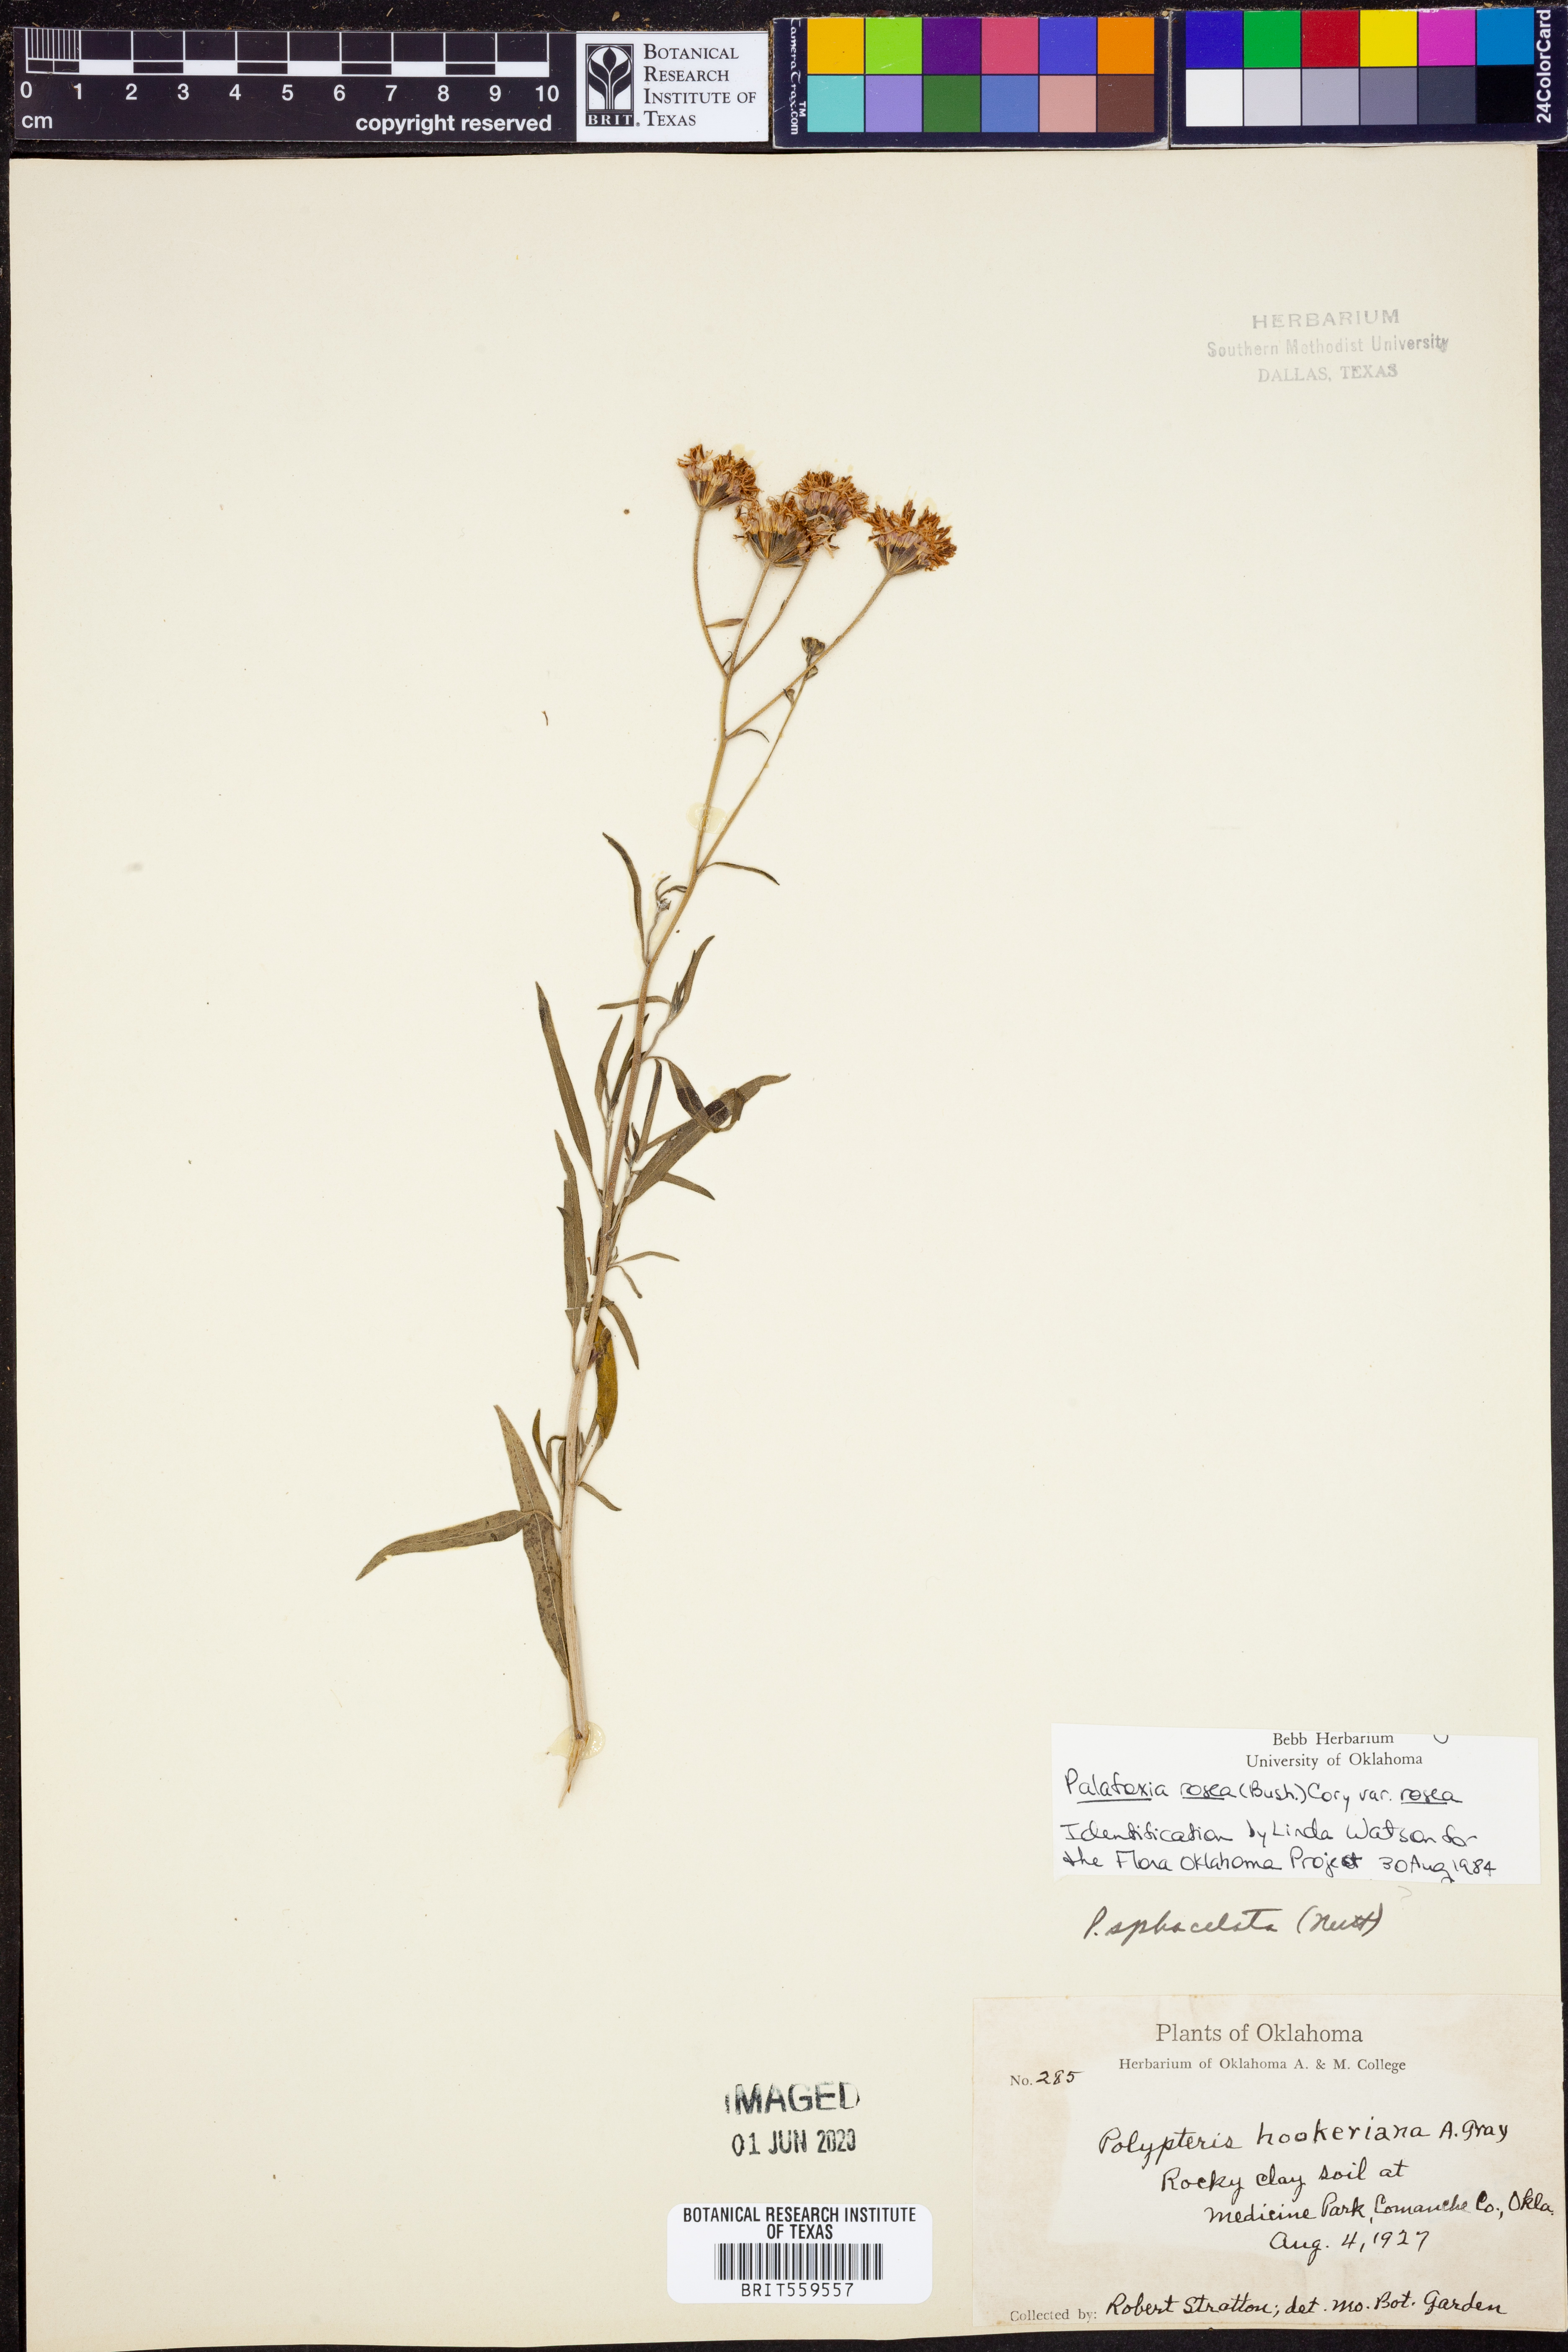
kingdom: Plantae
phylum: Tracheophyta
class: Magnoliopsida
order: Asterales
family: Asteraceae
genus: Palafoxia
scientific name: Palafoxia rosea
